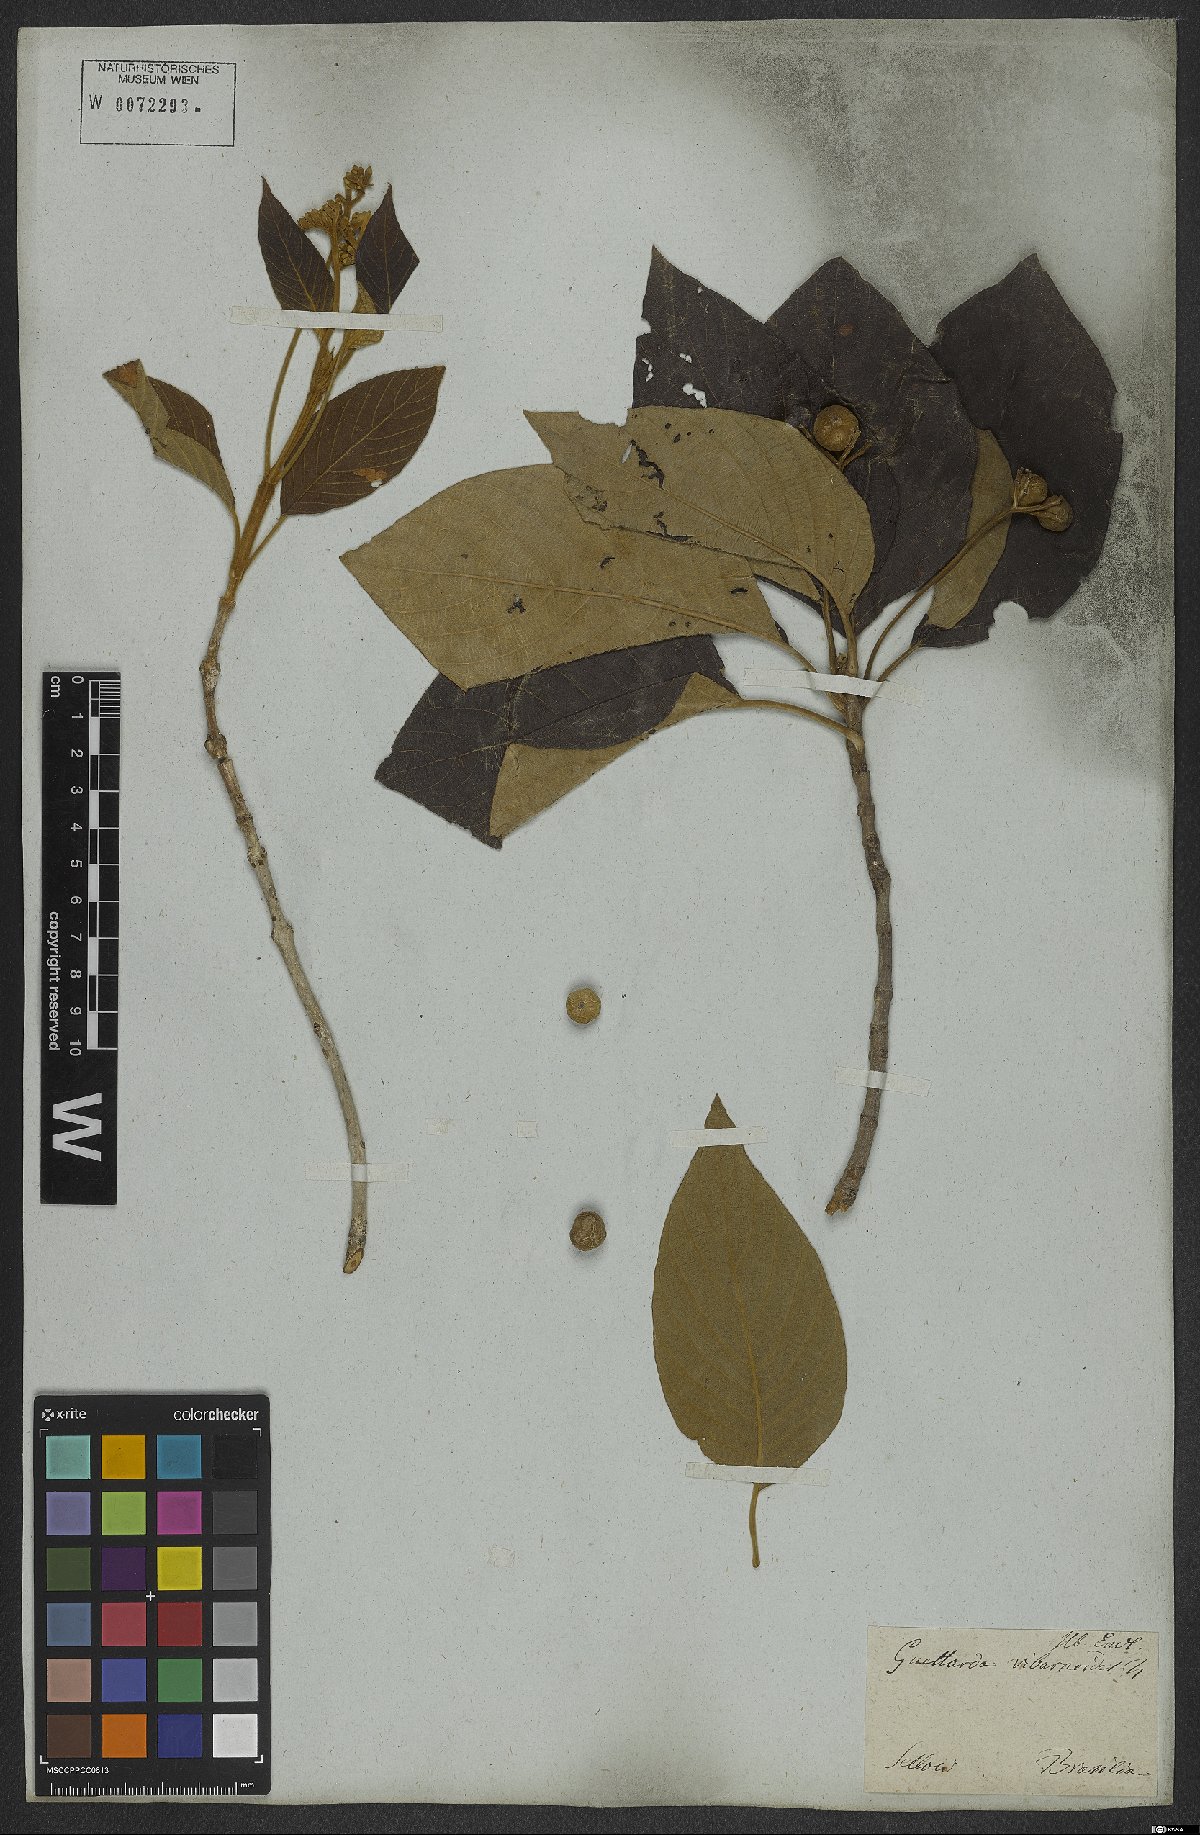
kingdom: Plantae
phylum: Tracheophyta
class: Magnoliopsida
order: Gentianales
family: Rubiaceae
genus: Guettarda
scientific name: Guettarda viburnoides
